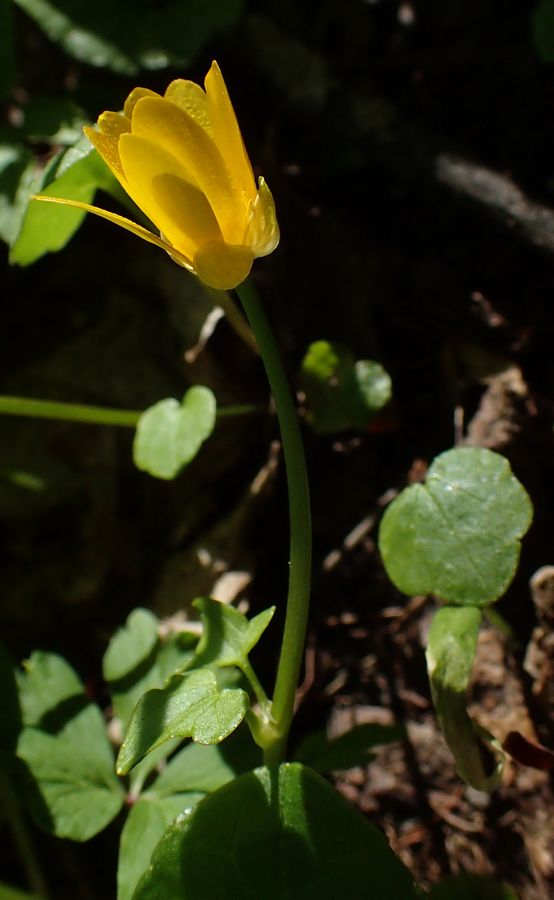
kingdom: Plantae
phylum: Tracheophyta
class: Magnoliopsida
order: Ranunculales
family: Ranunculaceae
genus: Ficaria
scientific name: Ficaria verna
